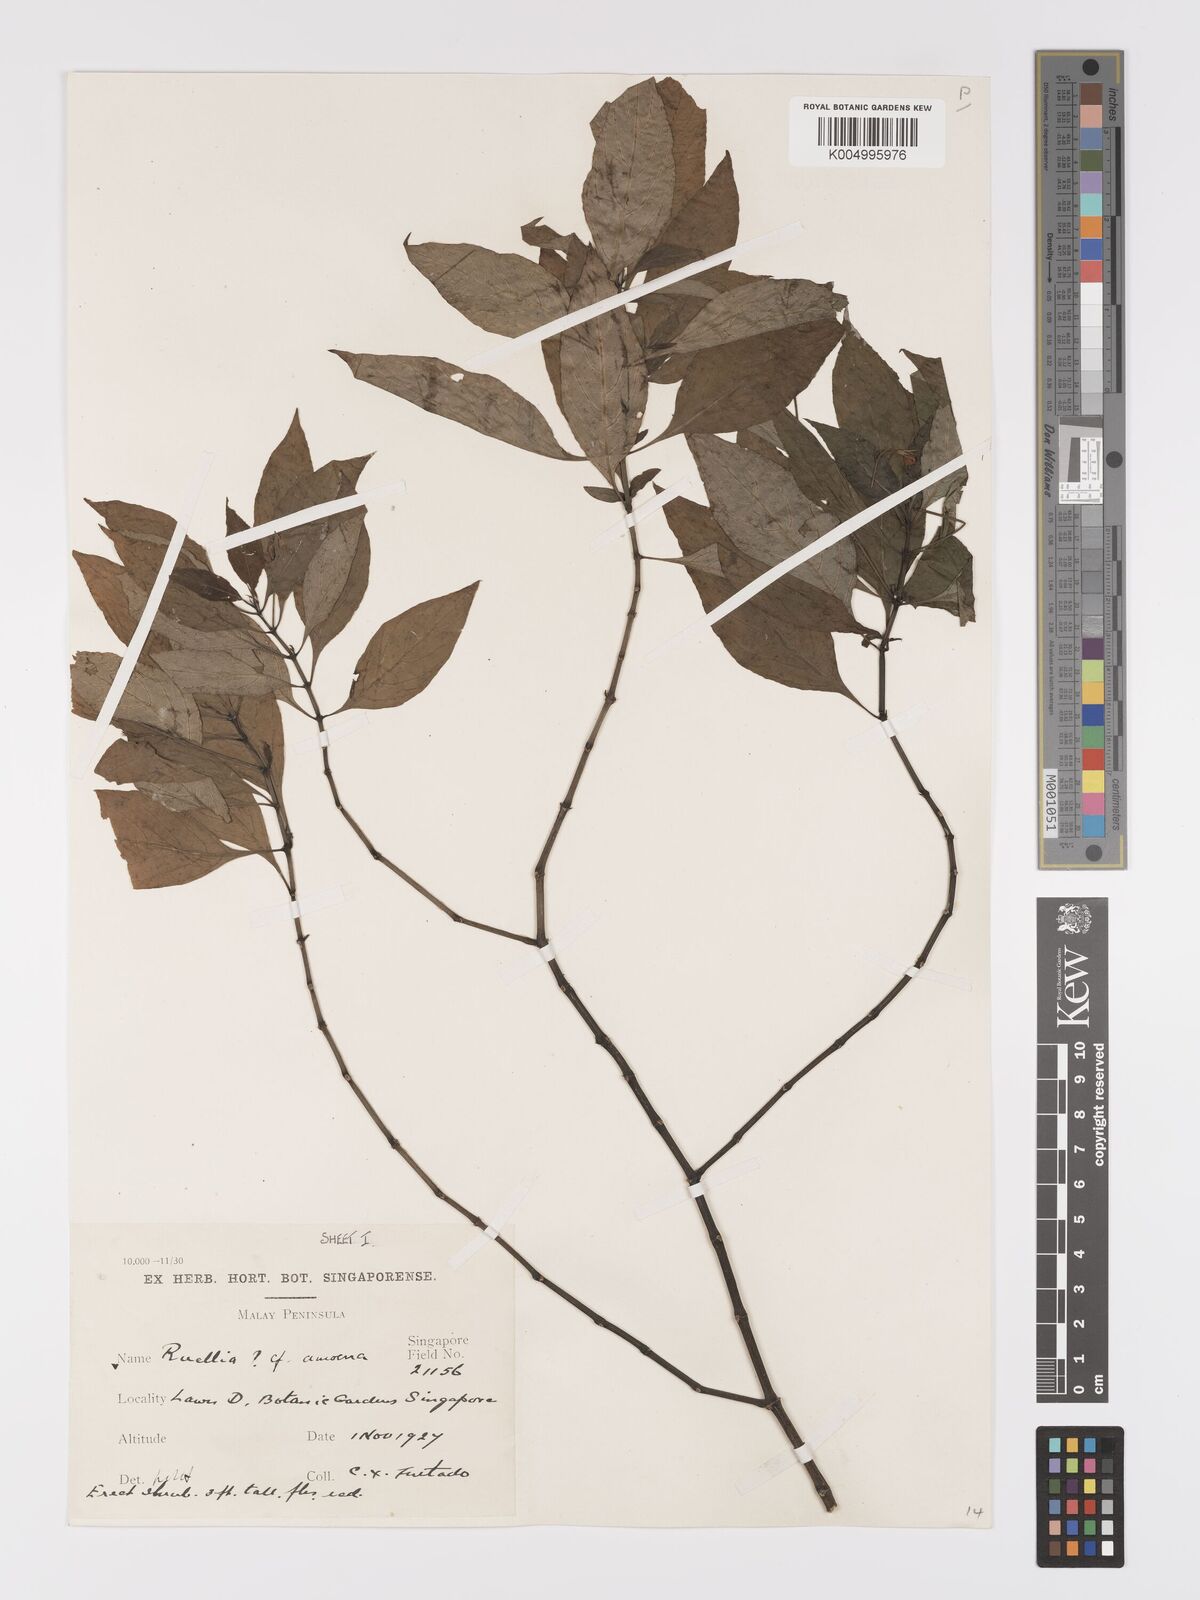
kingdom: Plantae
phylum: Tracheophyta
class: Magnoliopsida
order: Lamiales
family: Acanthaceae
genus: Ruellia
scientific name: Ruellia amoena
